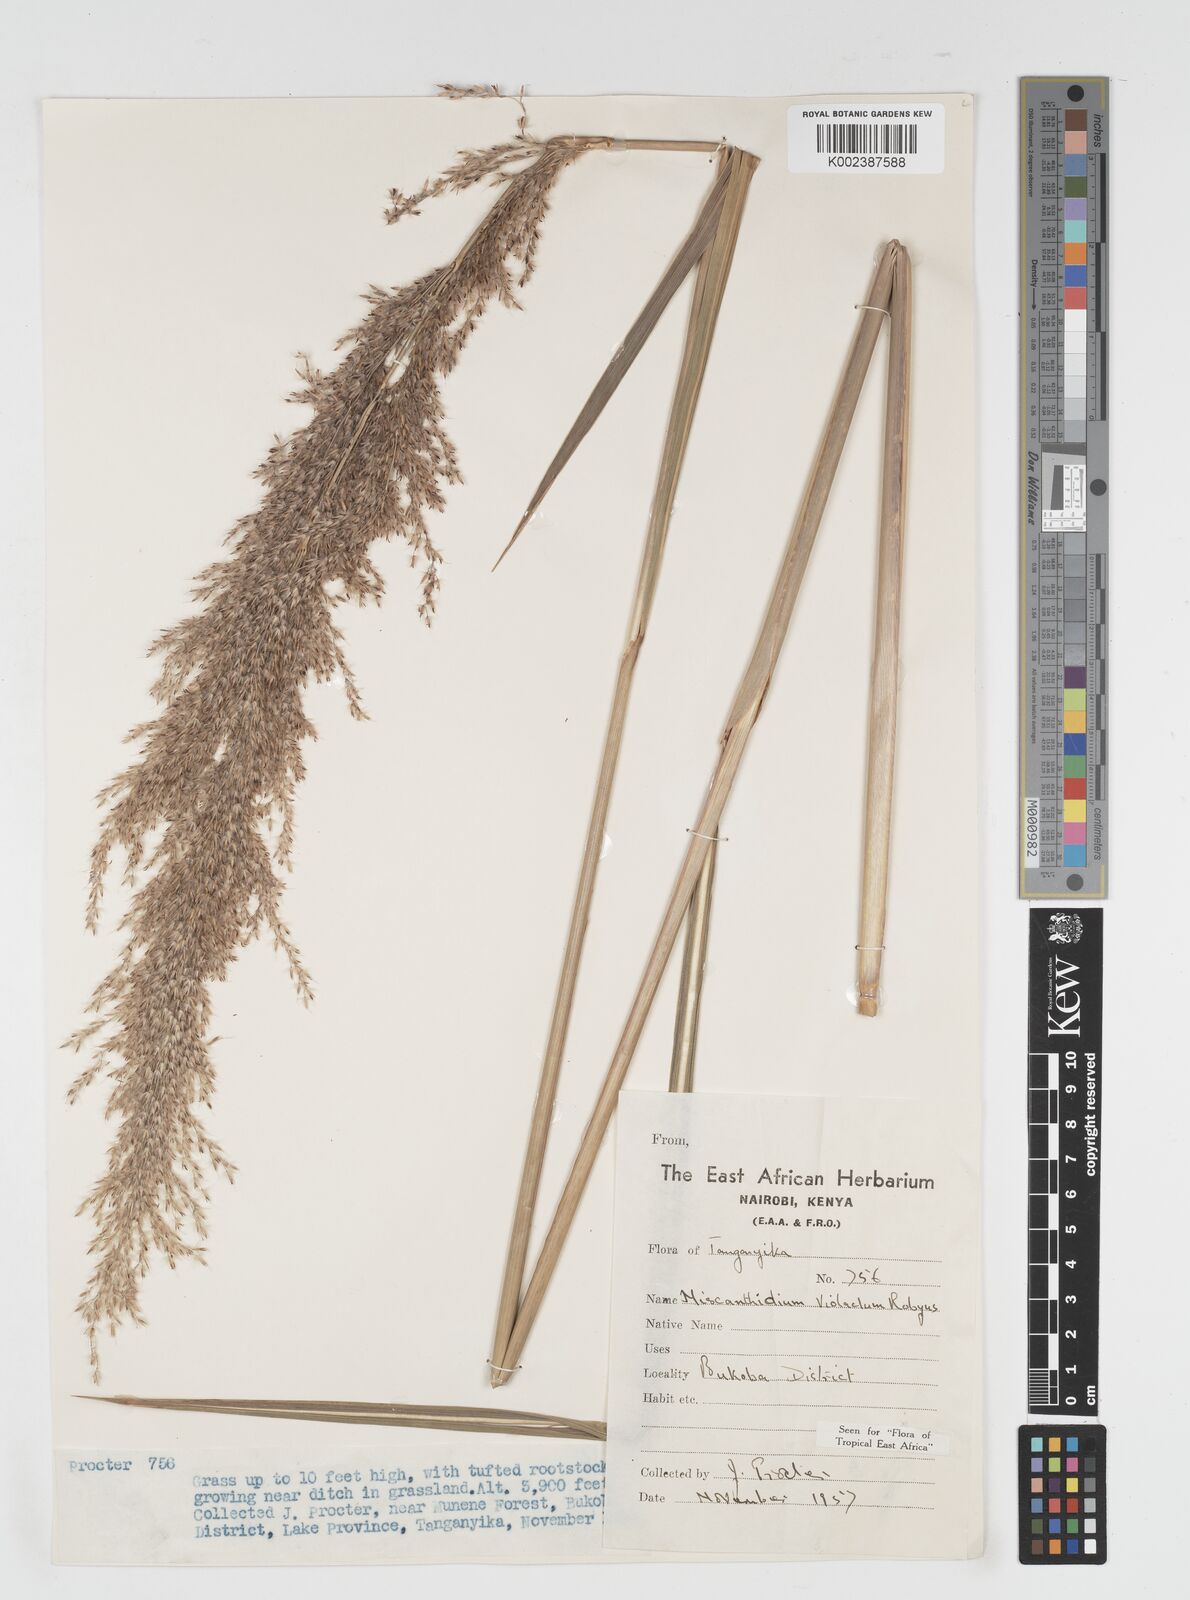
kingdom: Plantae
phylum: Tracheophyta
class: Liliopsida
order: Poales
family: Poaceae
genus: Miscanthidium
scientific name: Miscanthidium violaceum
